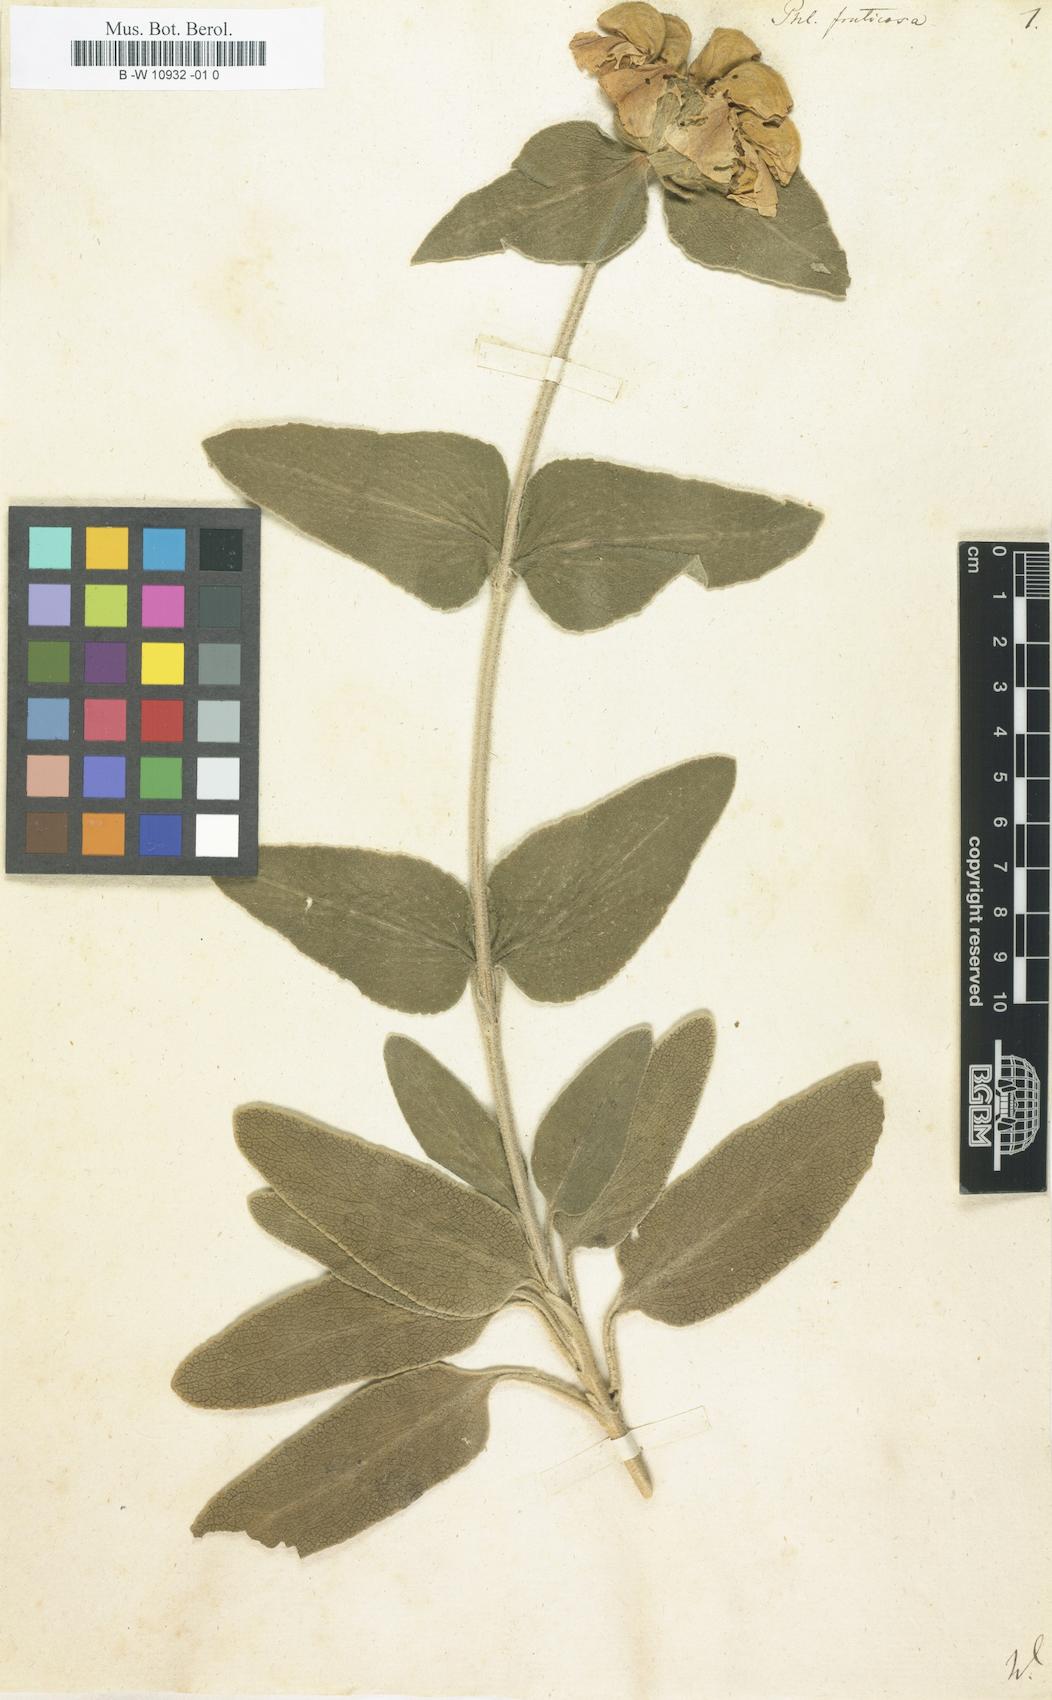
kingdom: Plantae
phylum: Tracheophyta
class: Magnoliopsida
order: Lamiales
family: Lamiaceae
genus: Phlomis
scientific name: Phlomis fruticosa
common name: Jerusalem sage
